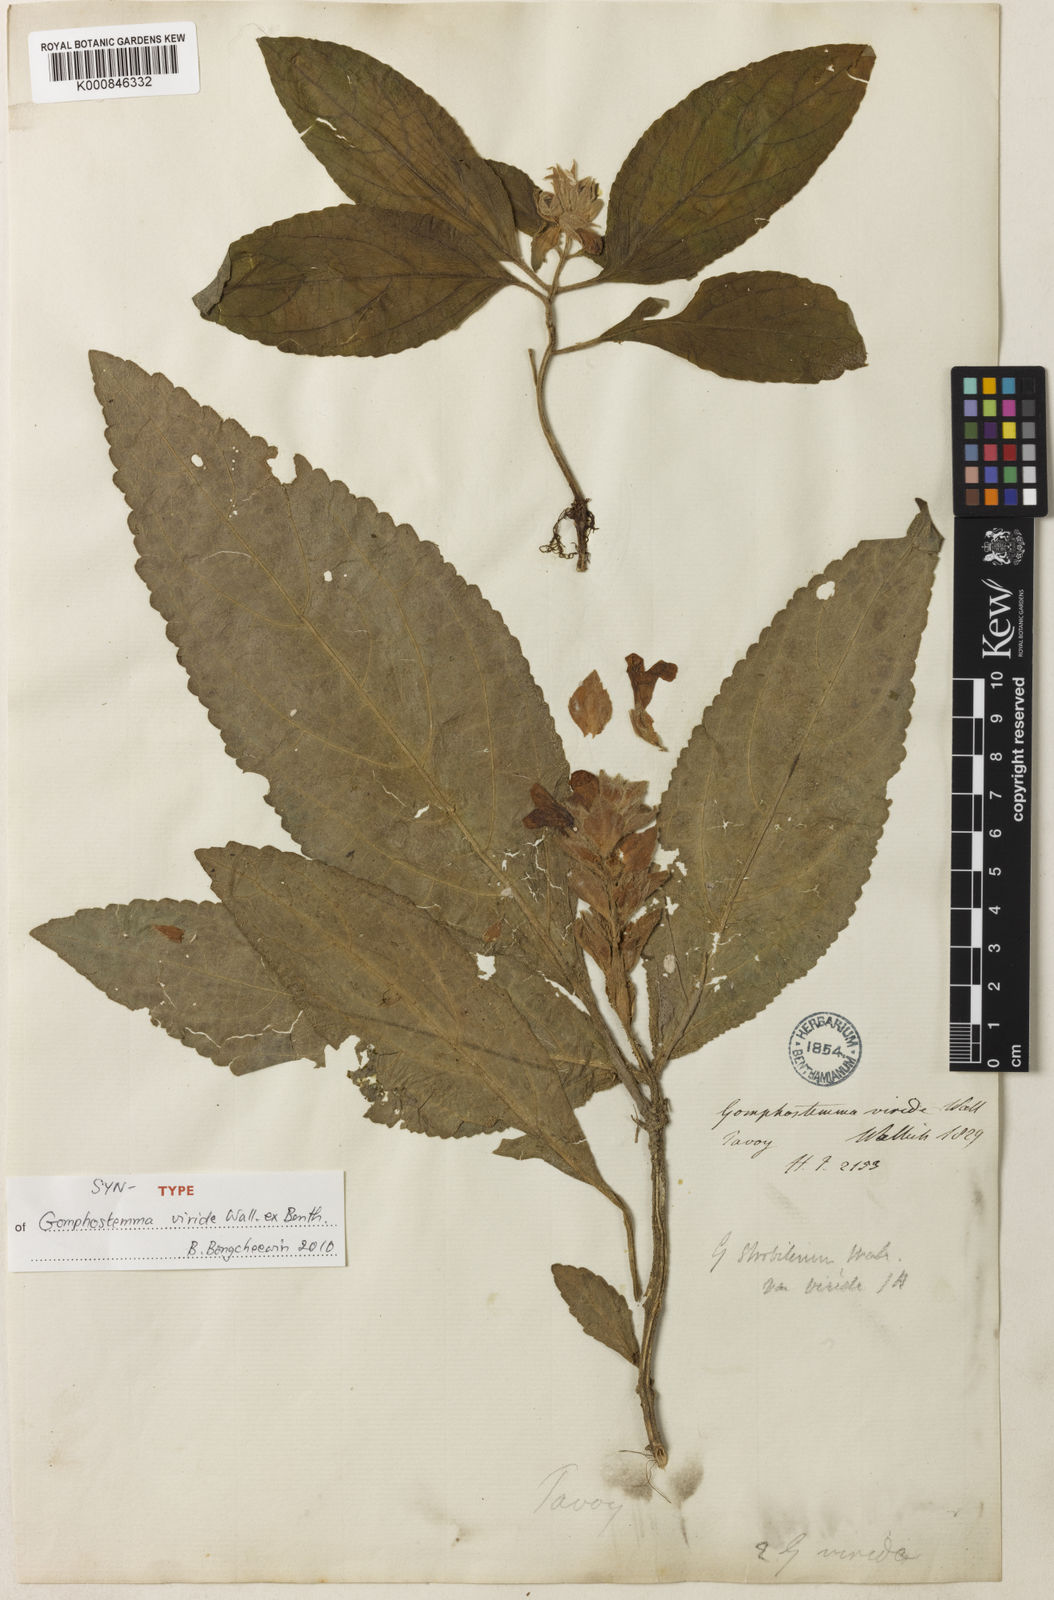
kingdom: Plantae
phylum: Tracheophyta
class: Magnoliopsida
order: Lamiales
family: Lamiaceae
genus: Gomphostemma
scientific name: Gomphostemma strobilinum
